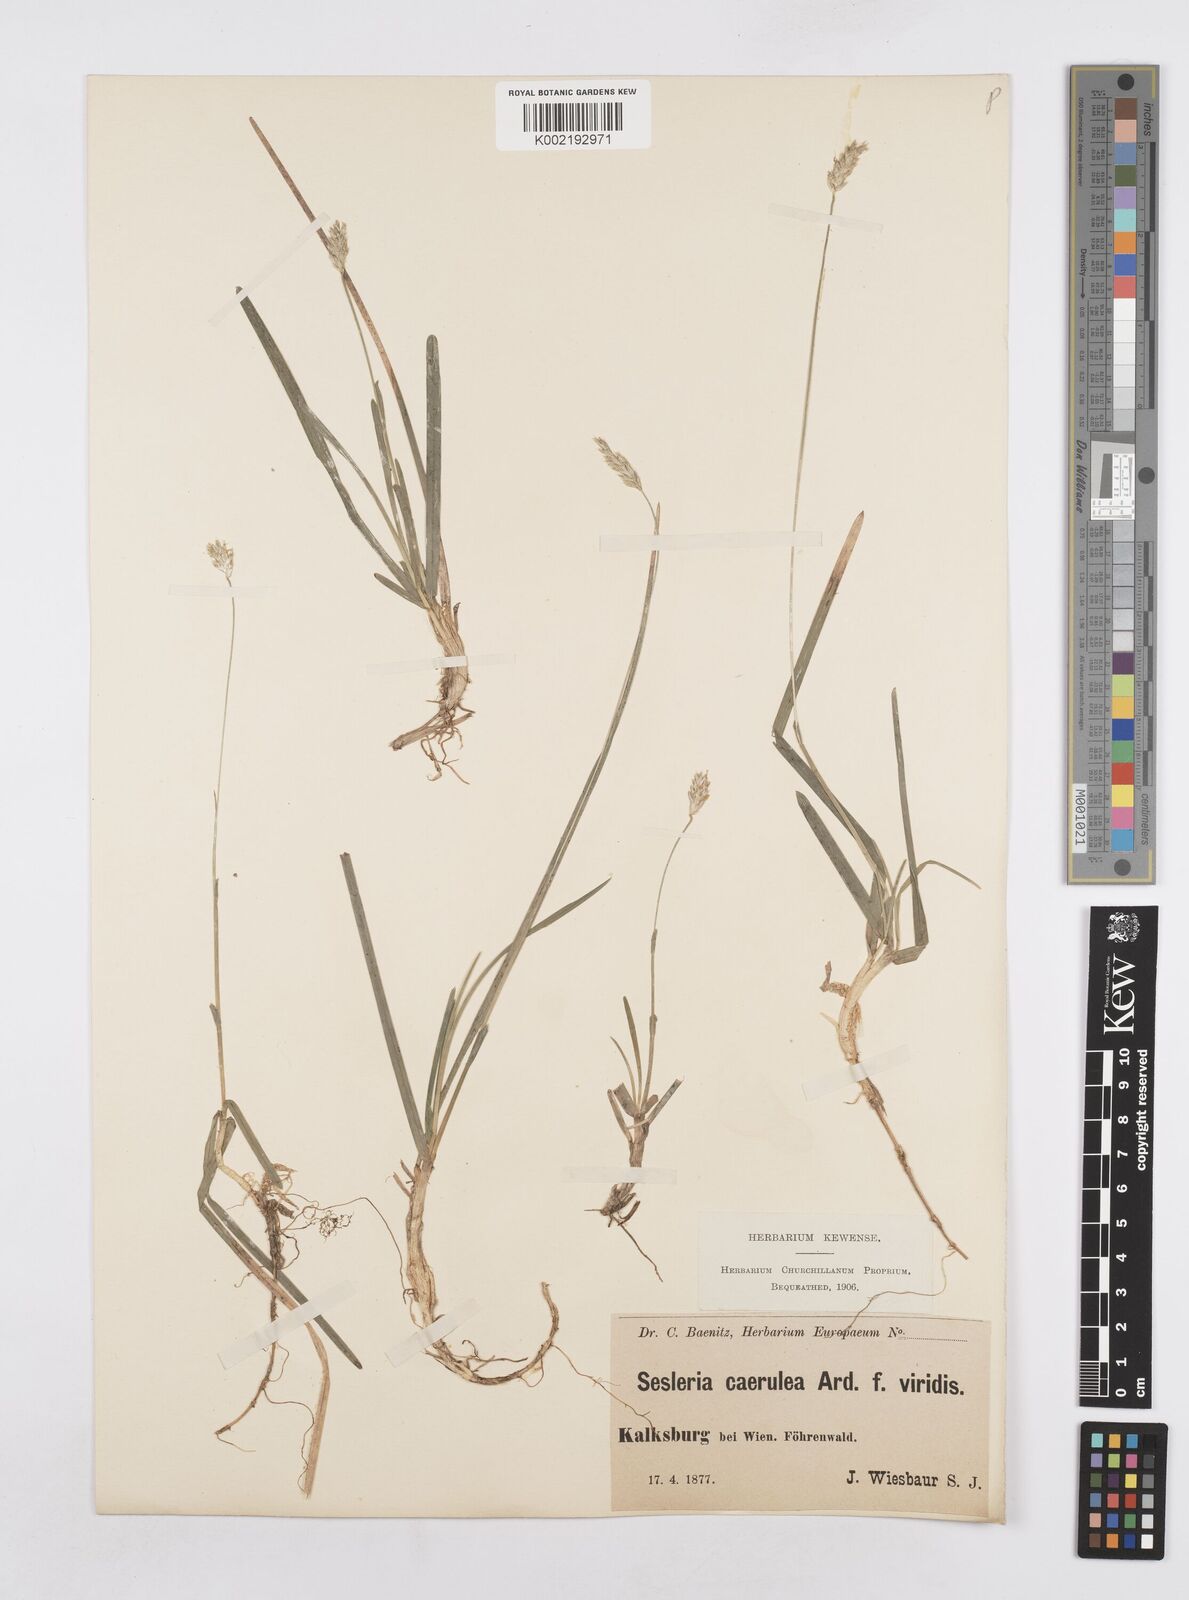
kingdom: Plantae
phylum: Tracheophyta
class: Liliopsida
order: Poales
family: Poaceae
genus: Sesleria
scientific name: Sesleria caerulea
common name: Blue moor-grass
